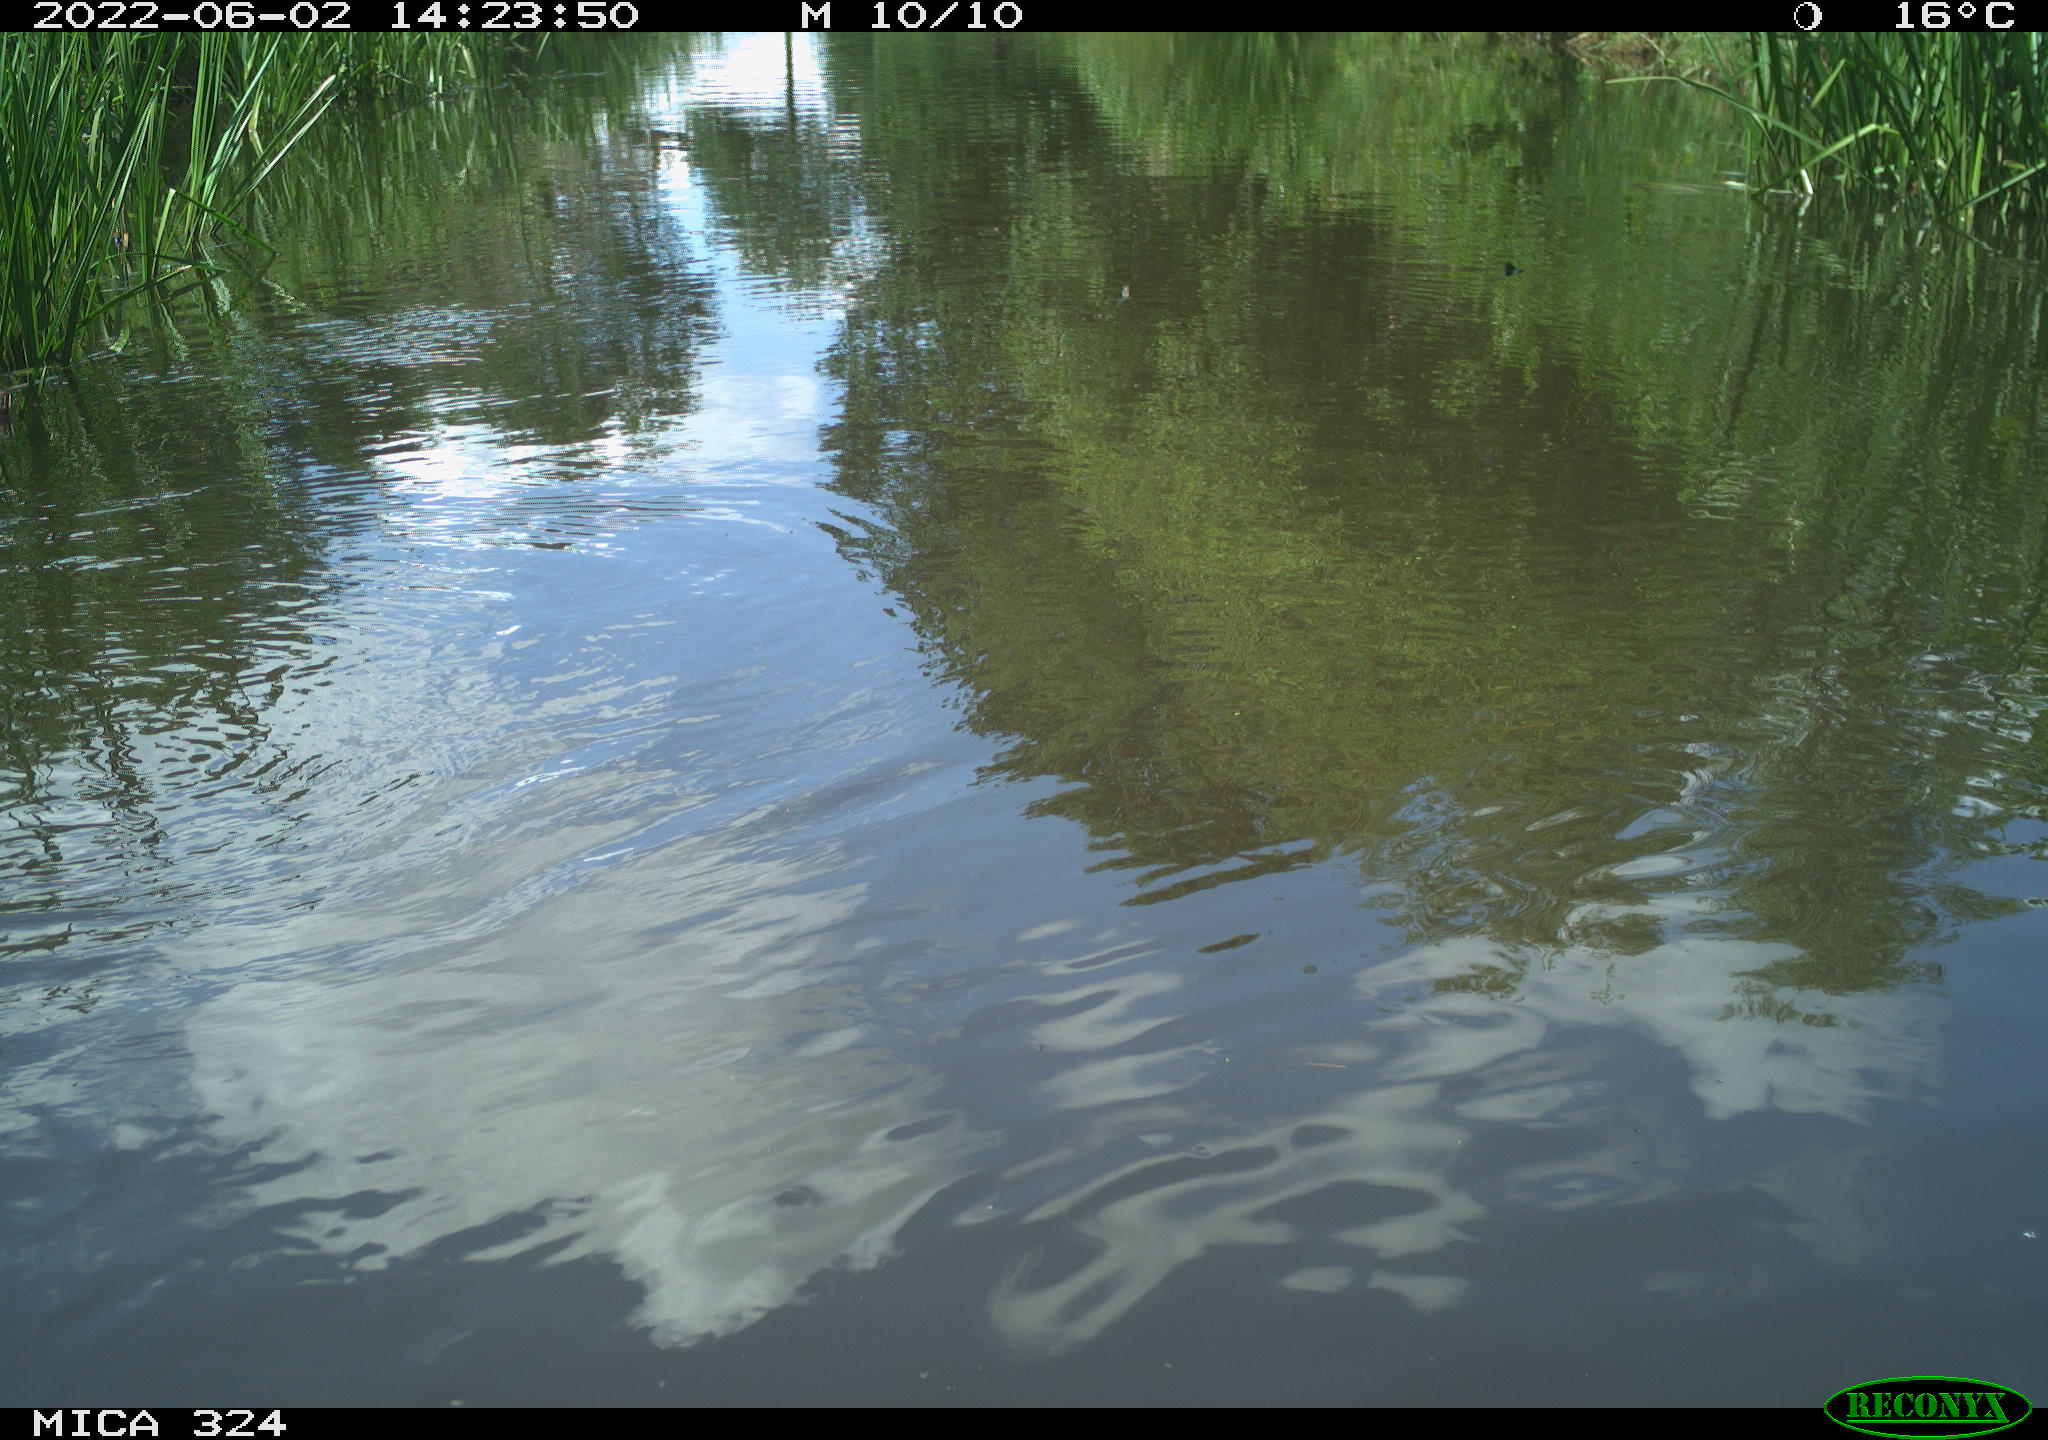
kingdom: Animalia
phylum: Chordata
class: Aves
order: Anseriformes
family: Anatidae
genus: Anas
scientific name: Anas platyrhynchos
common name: Mallard
